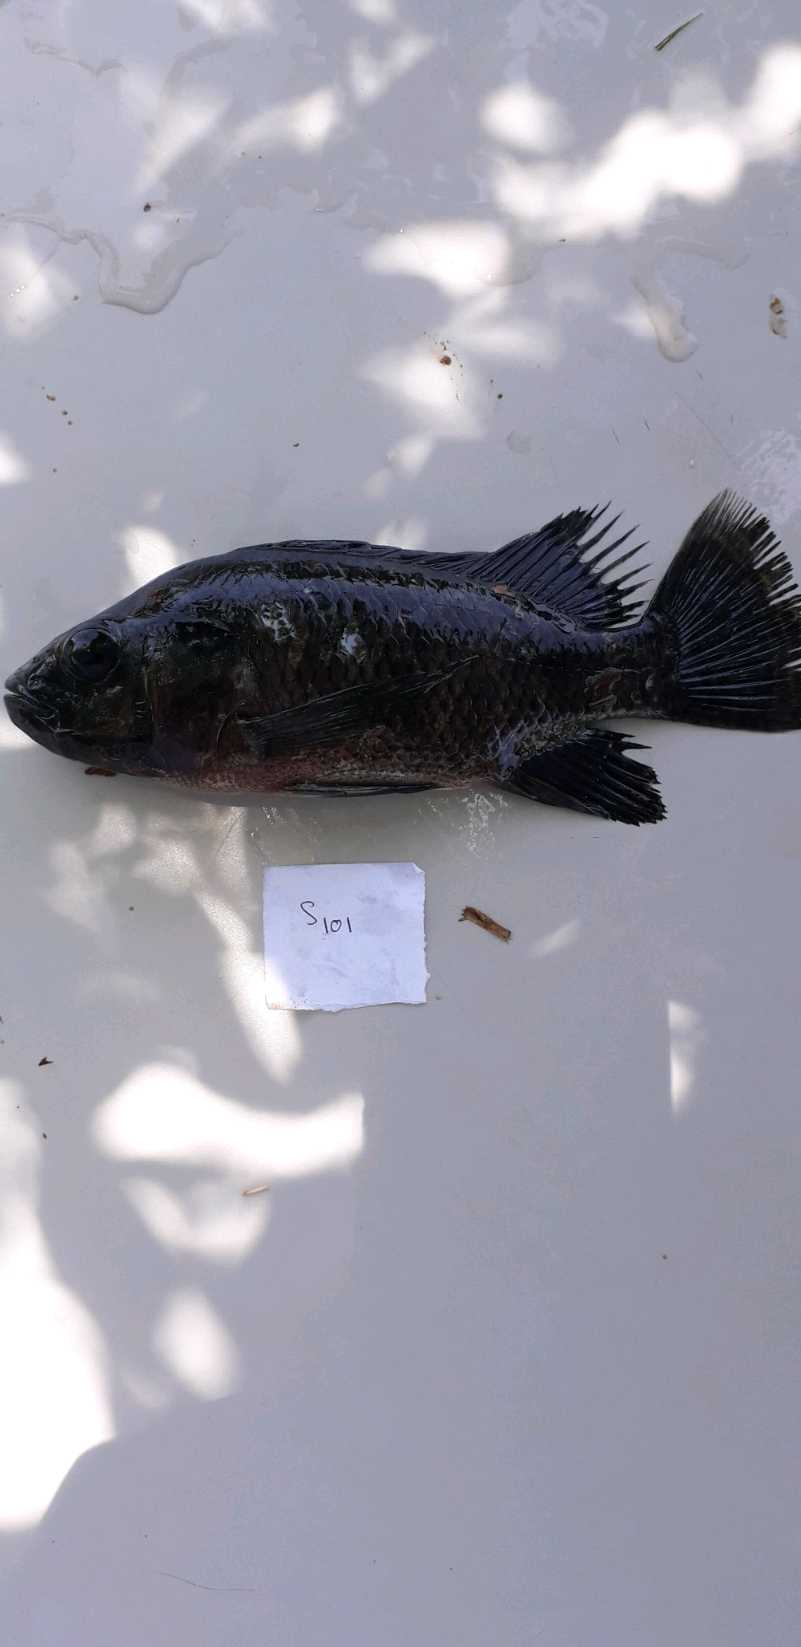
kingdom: Animalia
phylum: Chordata
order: Perciformes
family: Cichlidae
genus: Oreochromis
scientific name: Oreochromis urolepis
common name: Wami tilapia
